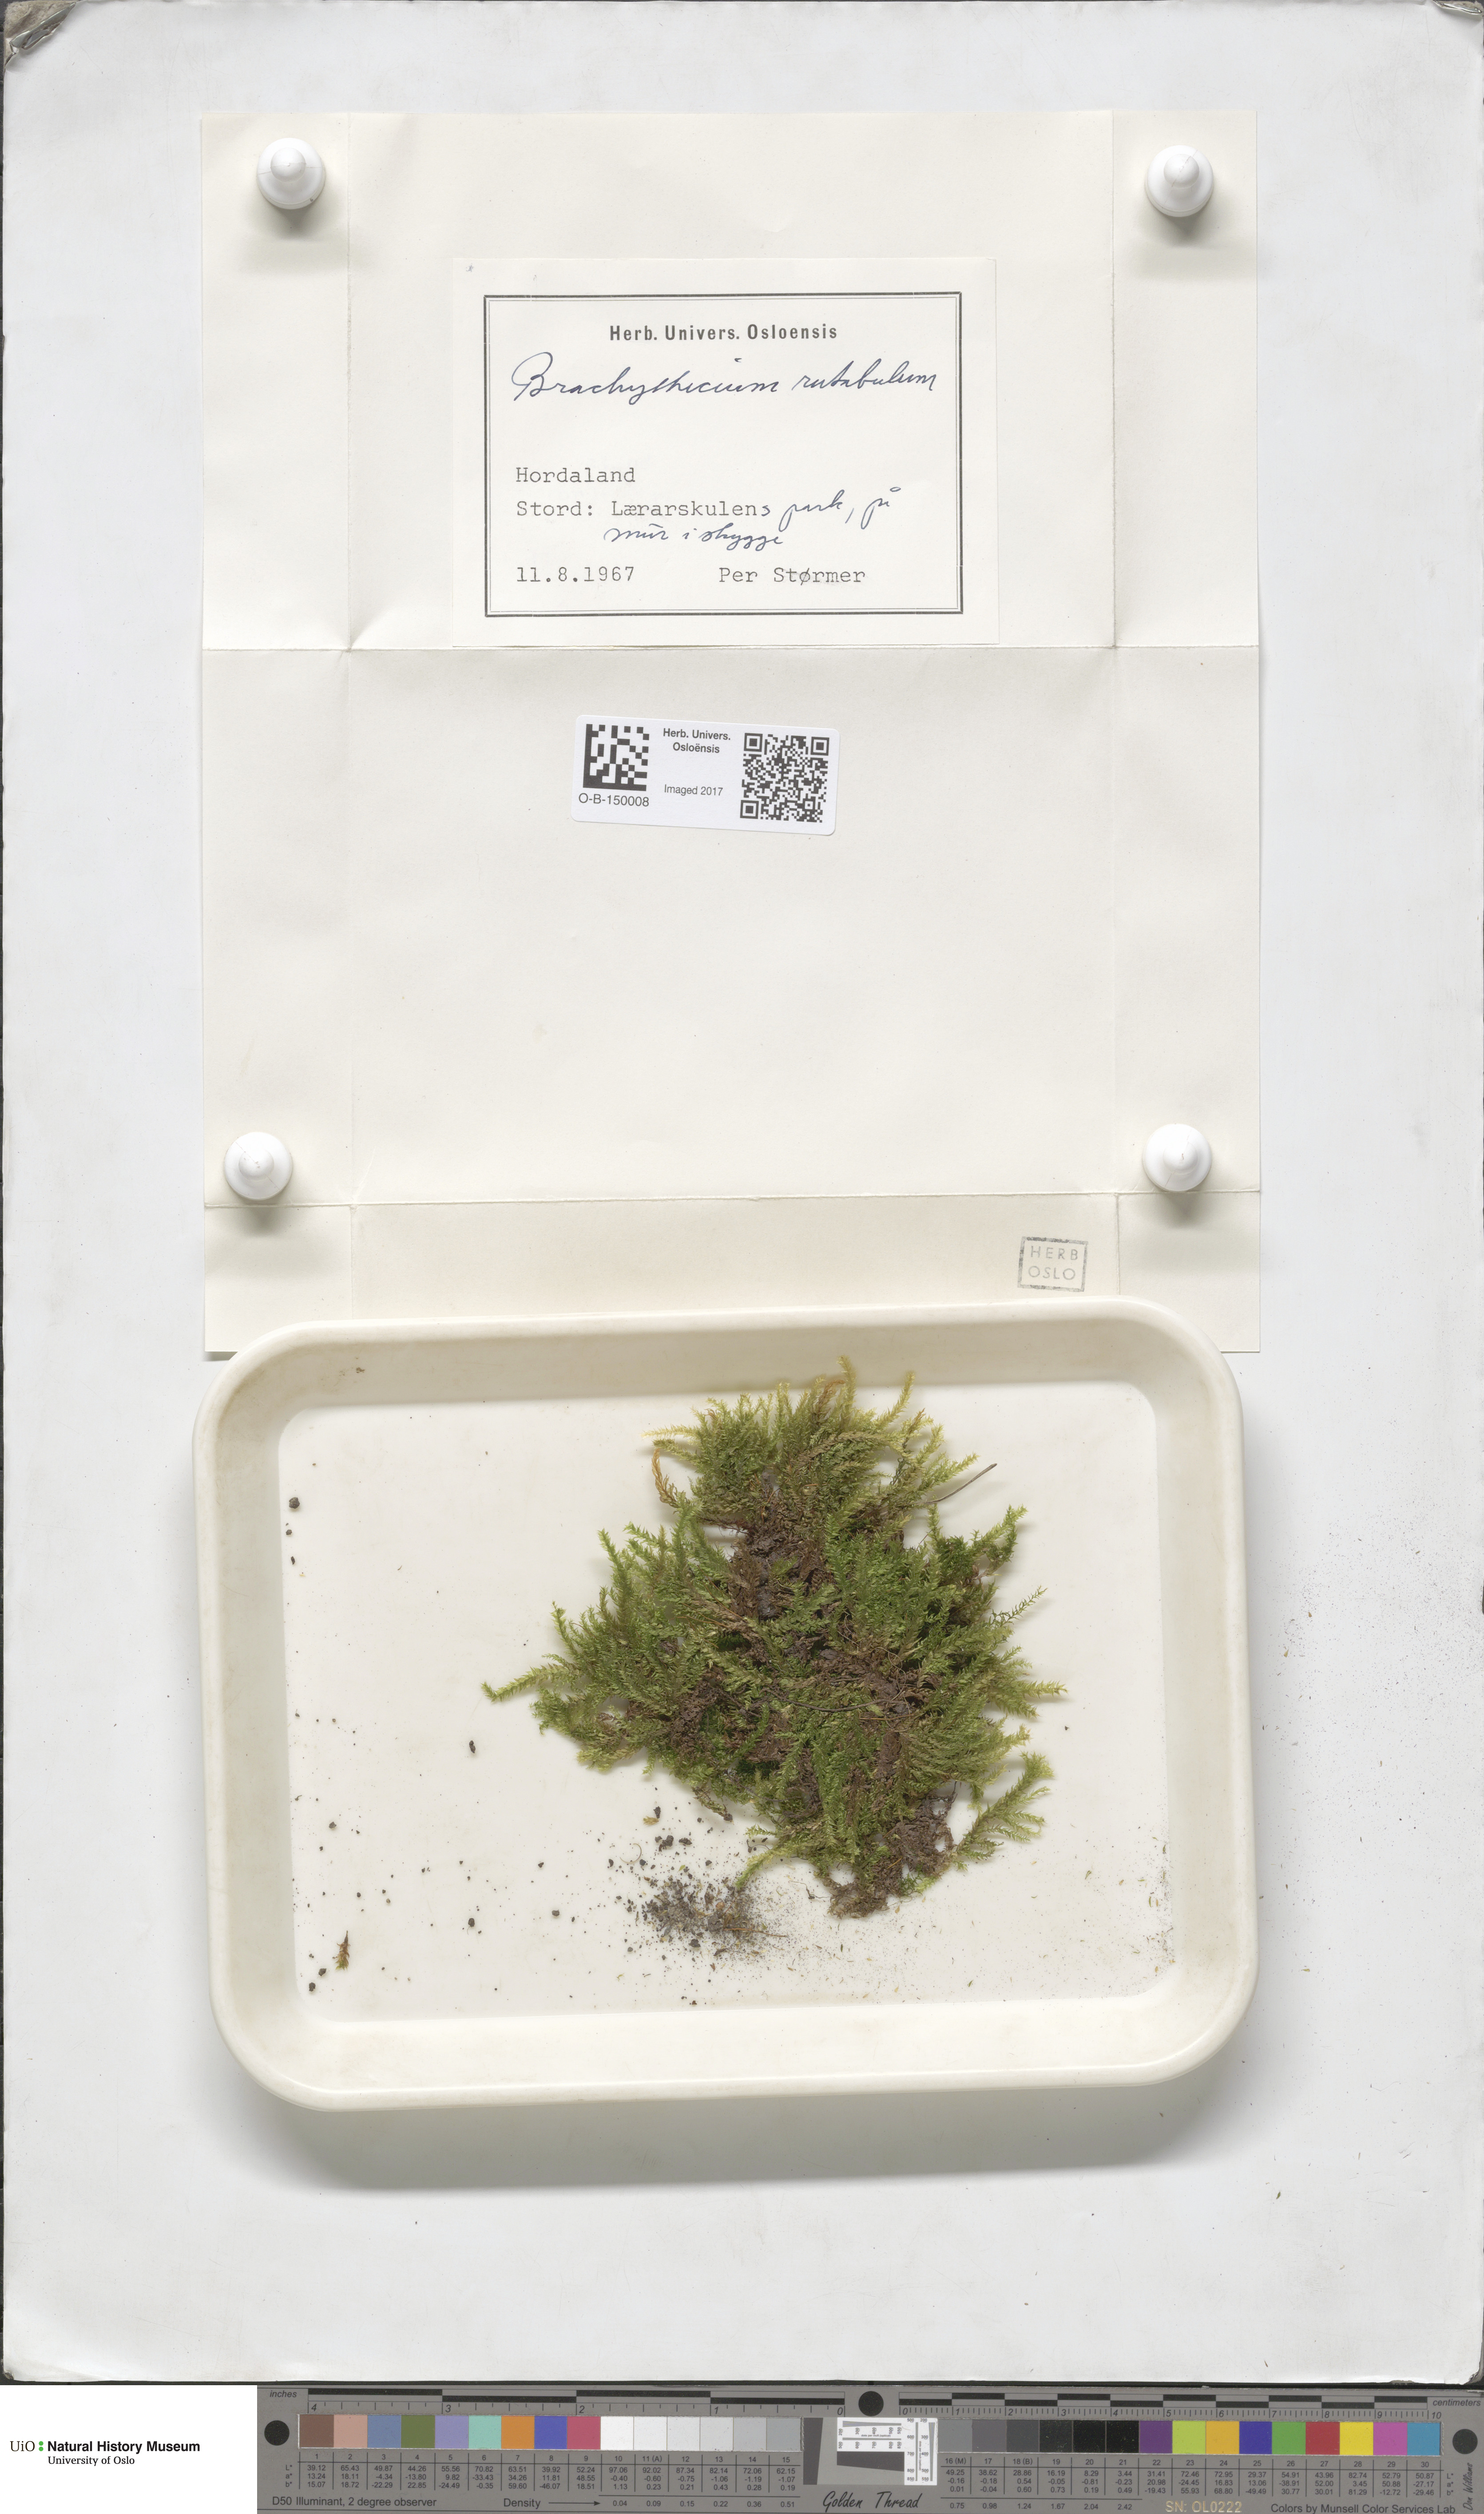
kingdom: Plantae
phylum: Bryophyta
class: Bryopsida
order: Hypnales
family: Brachytheciaceae
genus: Brachythecium
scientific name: Brachythecium rutabulum
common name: Rough-stalked feather-moss
